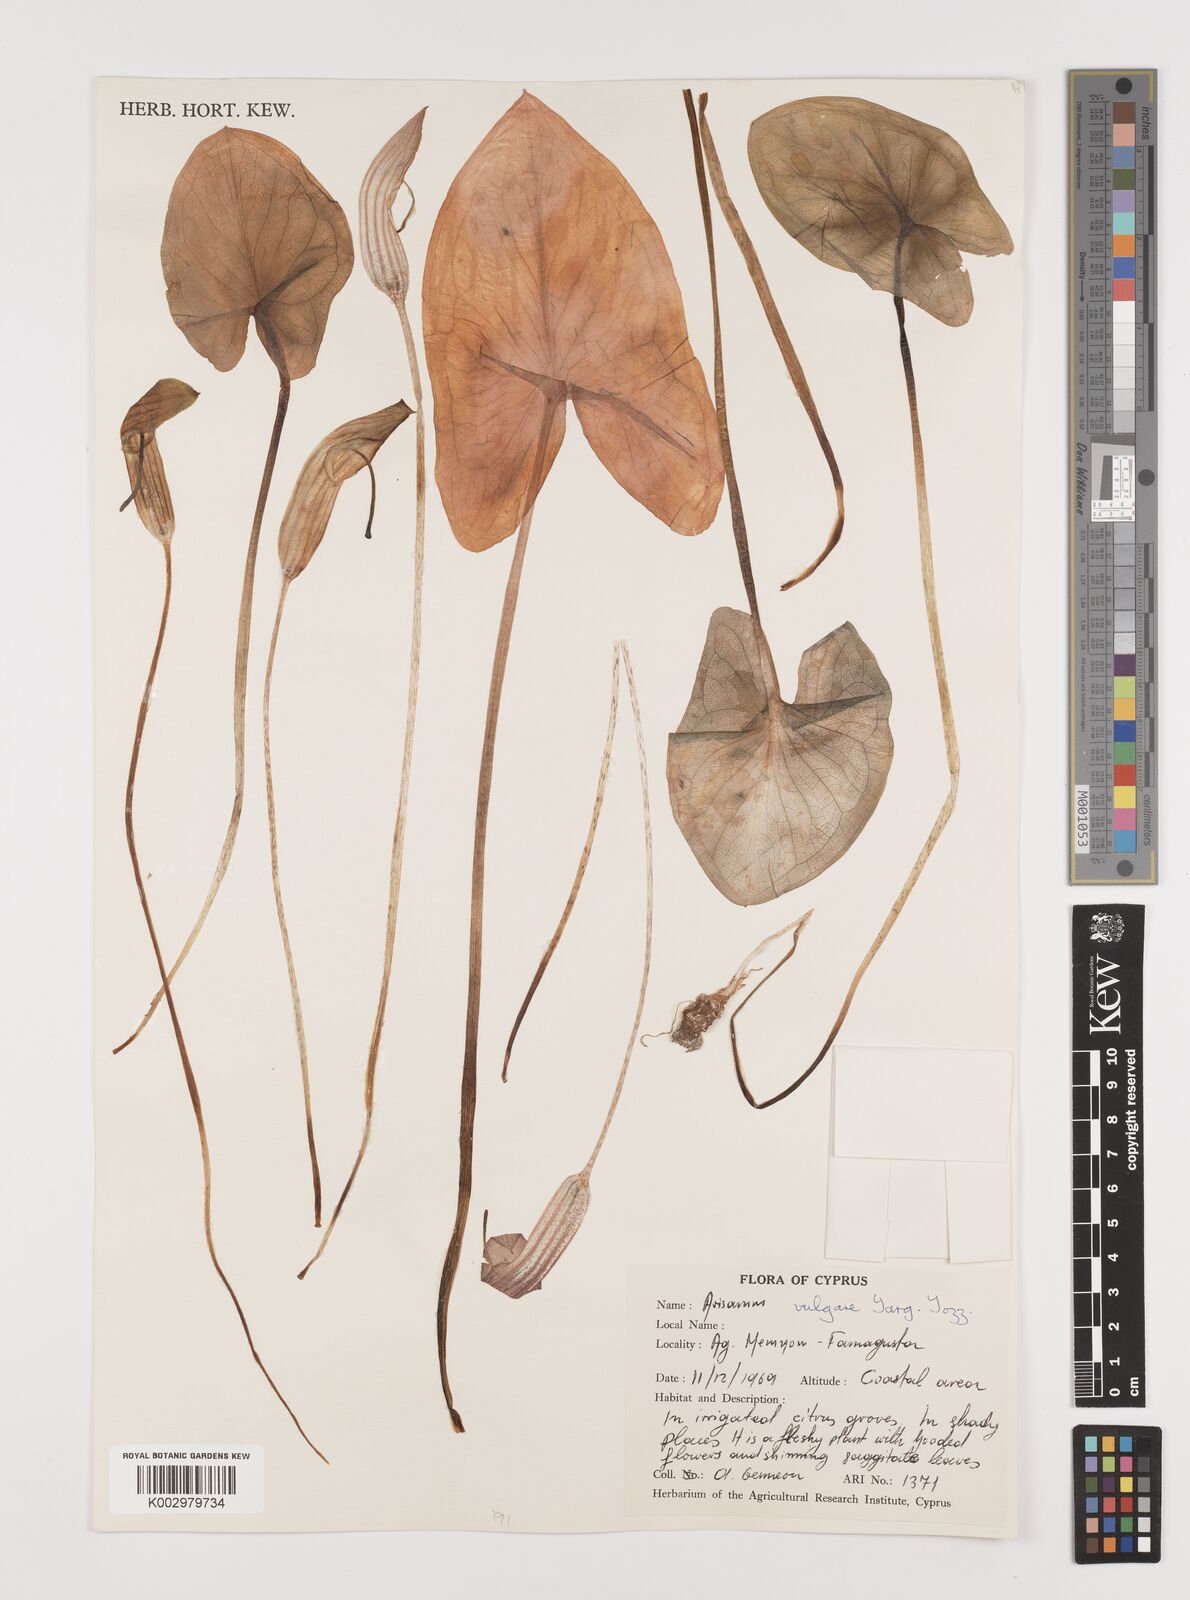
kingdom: Plantae
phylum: Tracheophyta
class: Liliopsida
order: Alismatales
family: Araceae
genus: Arisarum
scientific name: Arisarum vulgare
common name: Common arisarum
